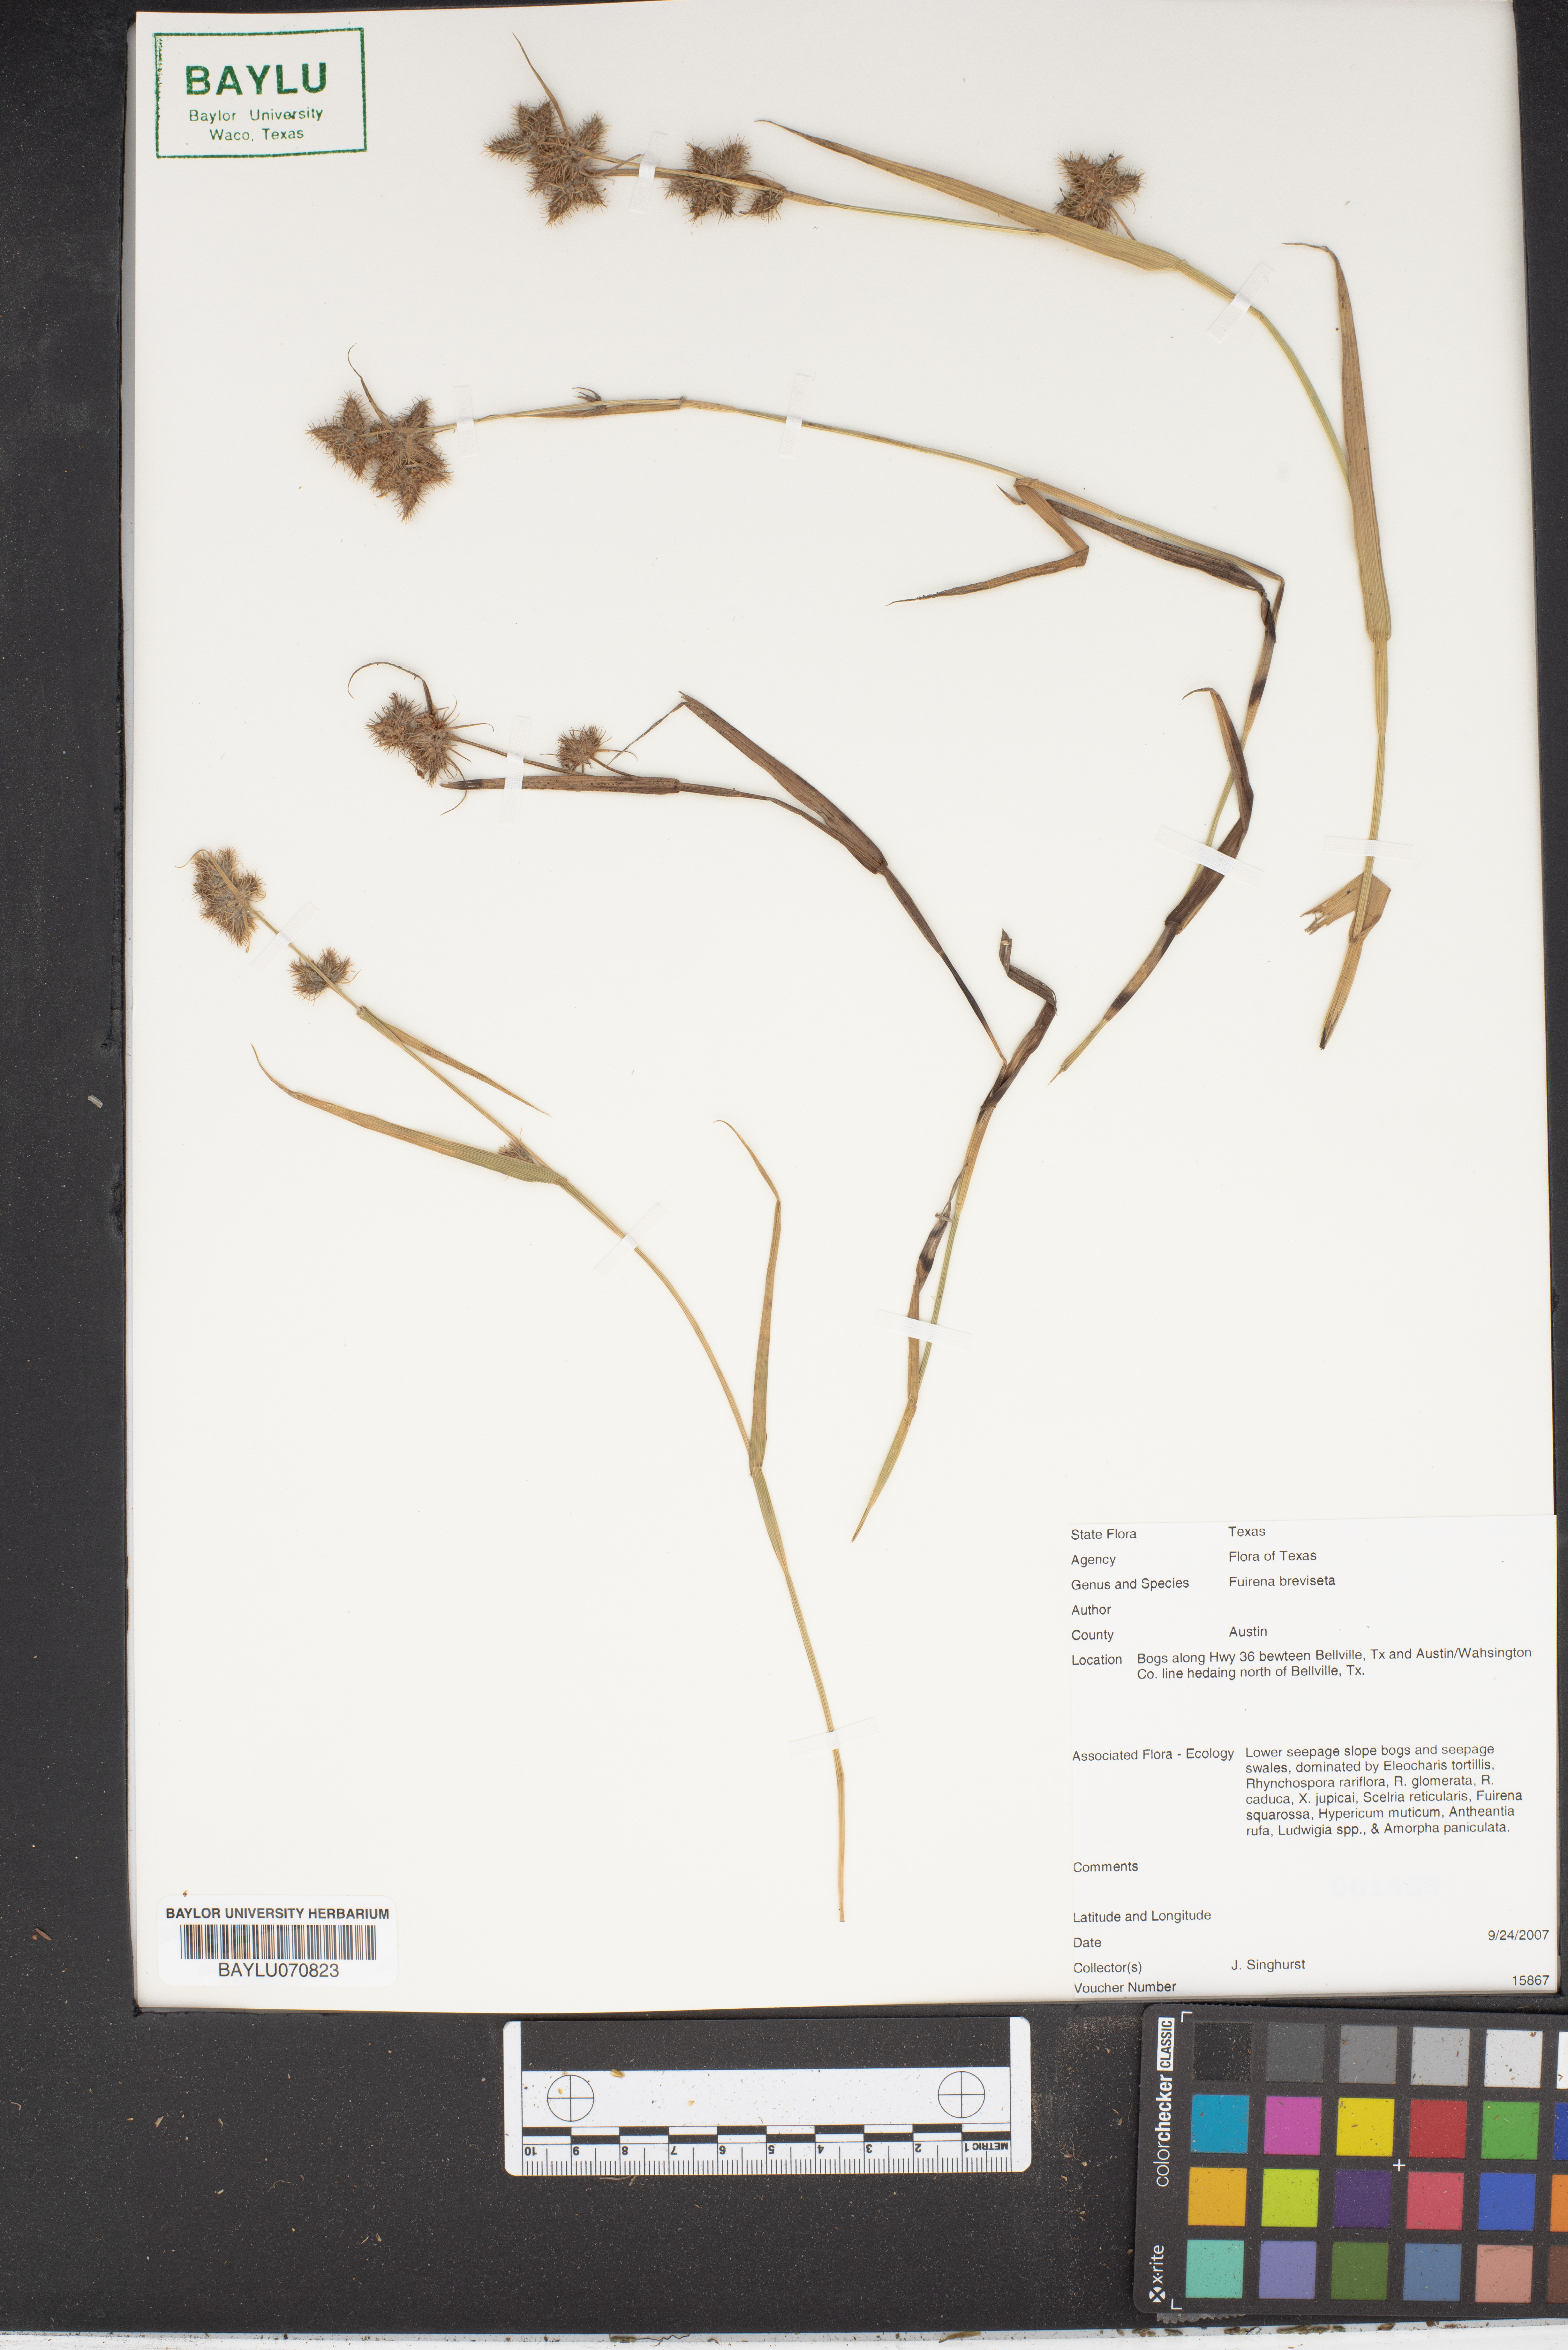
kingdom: Plantae
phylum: Tracheophyta
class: Liliopsida
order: Poales
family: Cyperaceae
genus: Fuirena
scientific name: Fuirena breviseta
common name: Saltmarsh umbrella sedge
